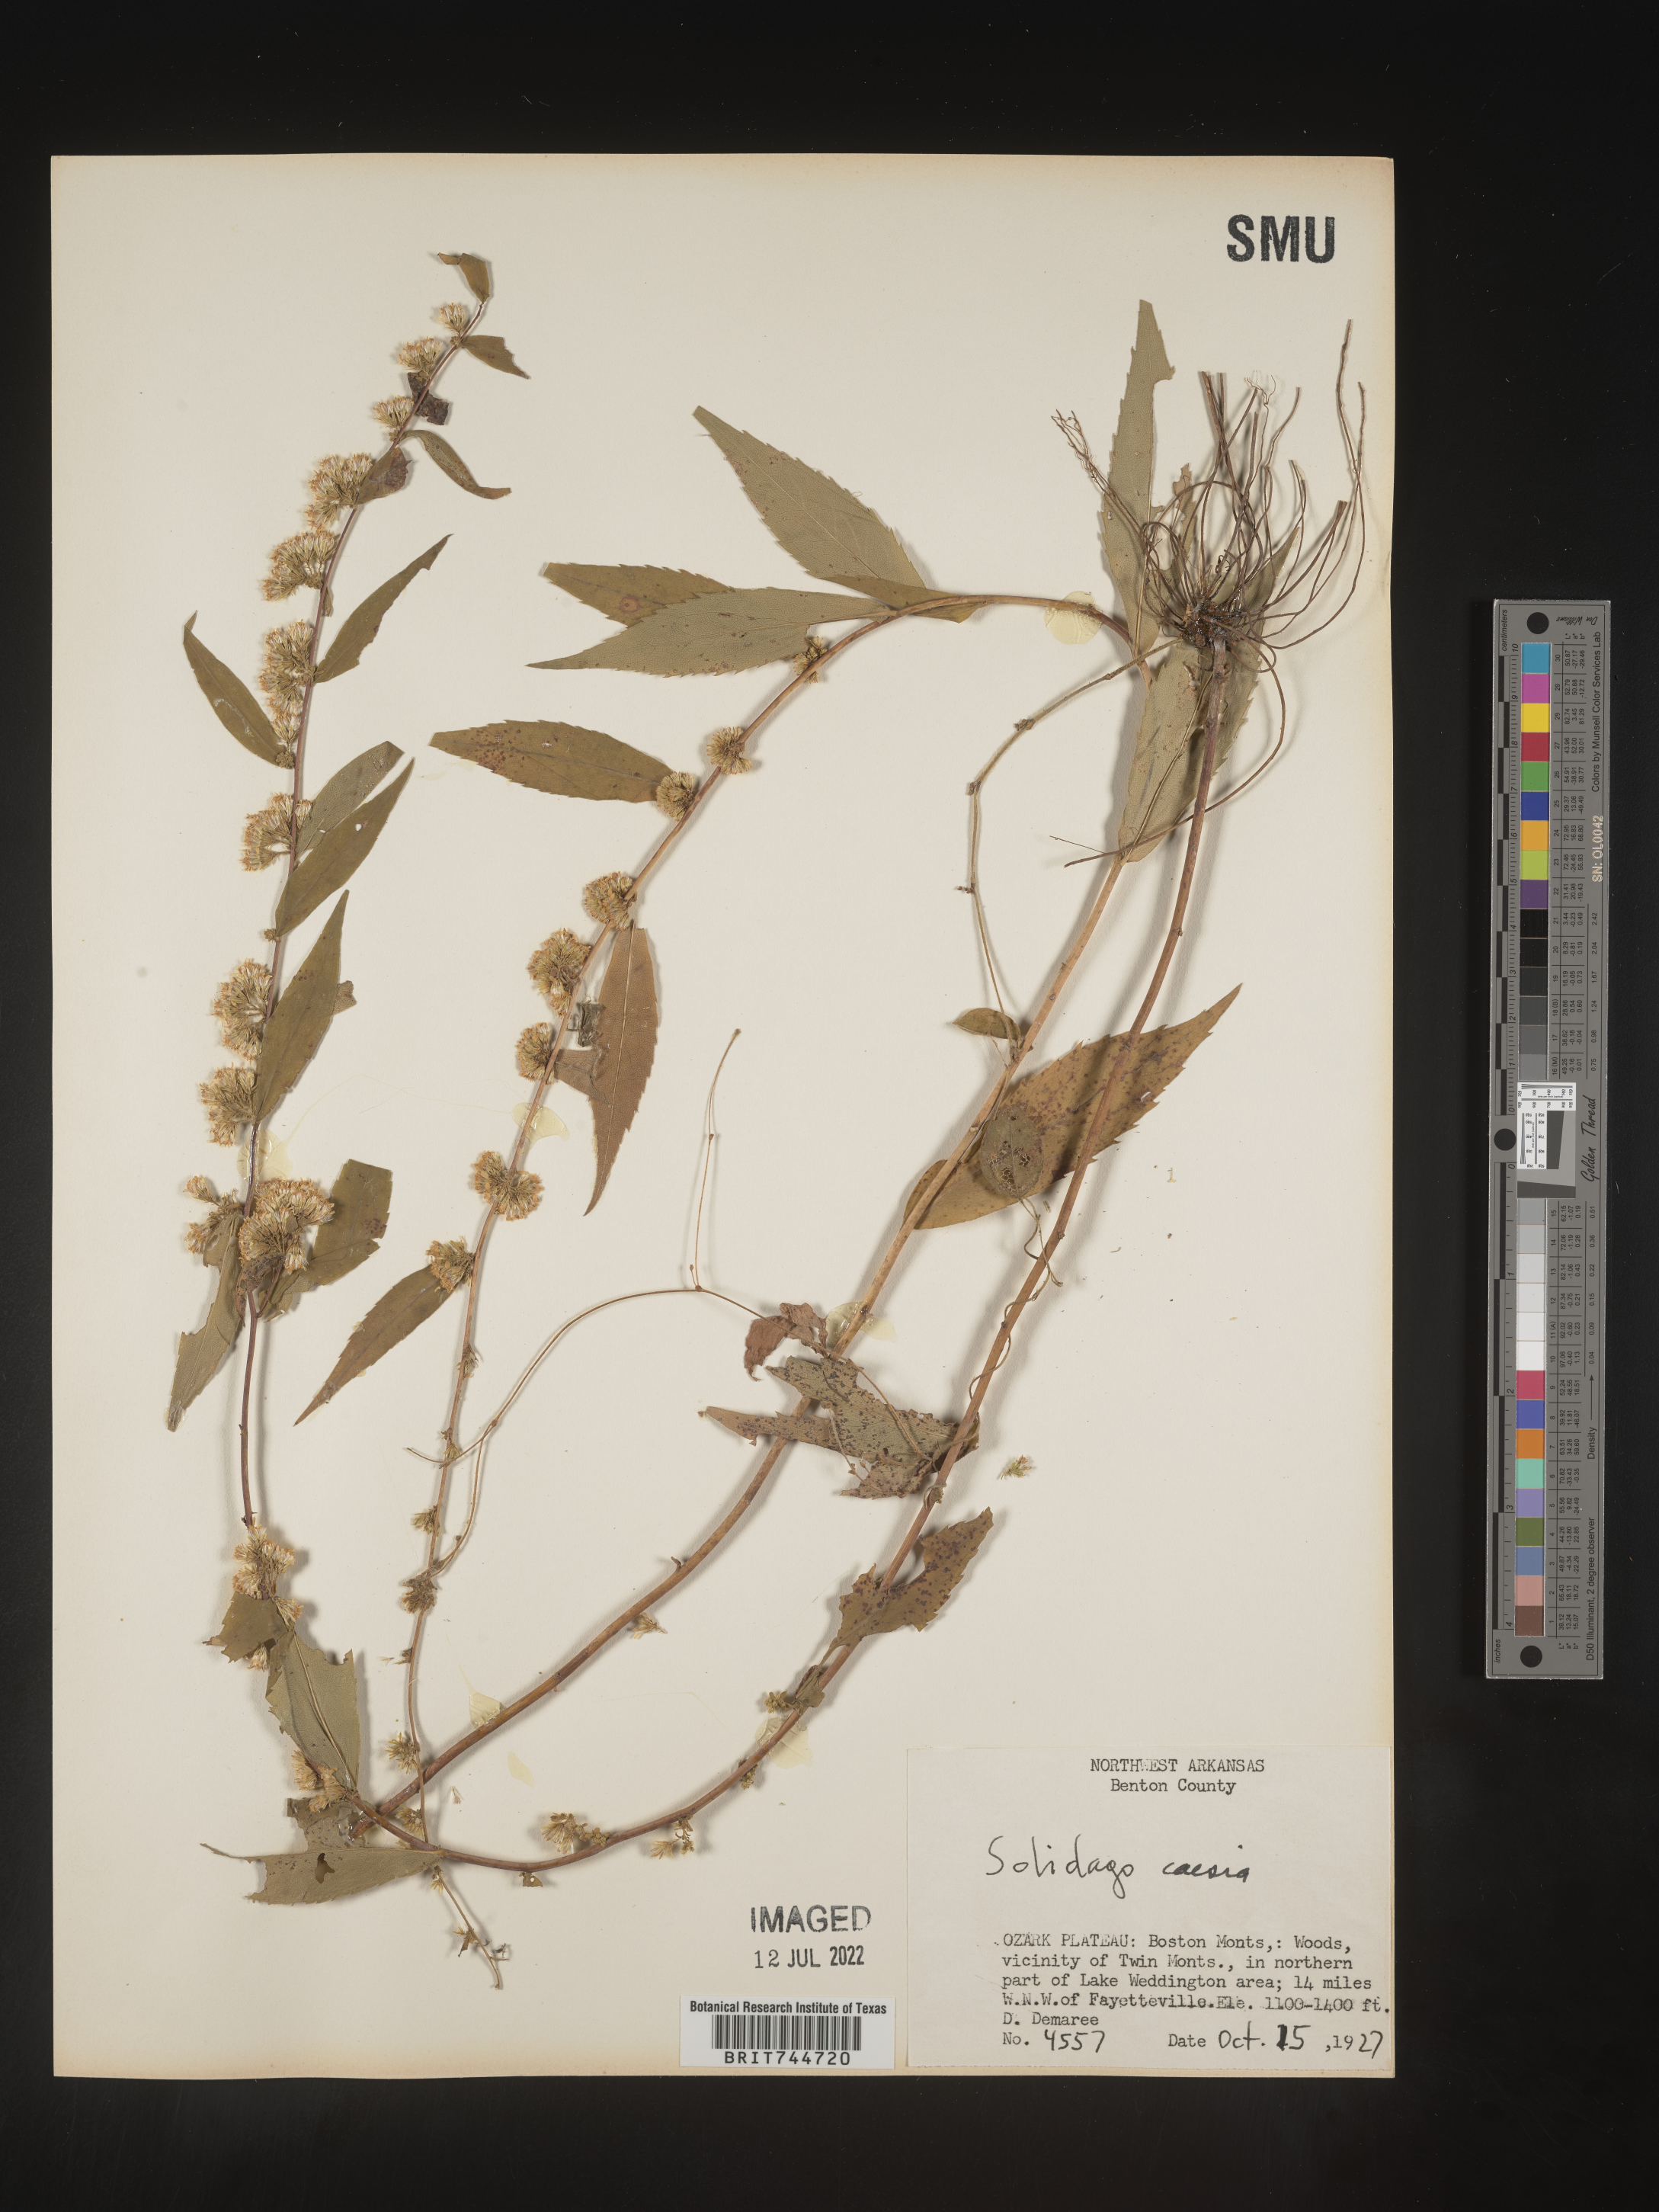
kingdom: Plantae
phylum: Tracheophyta
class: Magnoliopsida
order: Asterales
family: Asteraceae
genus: Solidago
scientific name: Solidago caesia
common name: Woodland goldenrod
